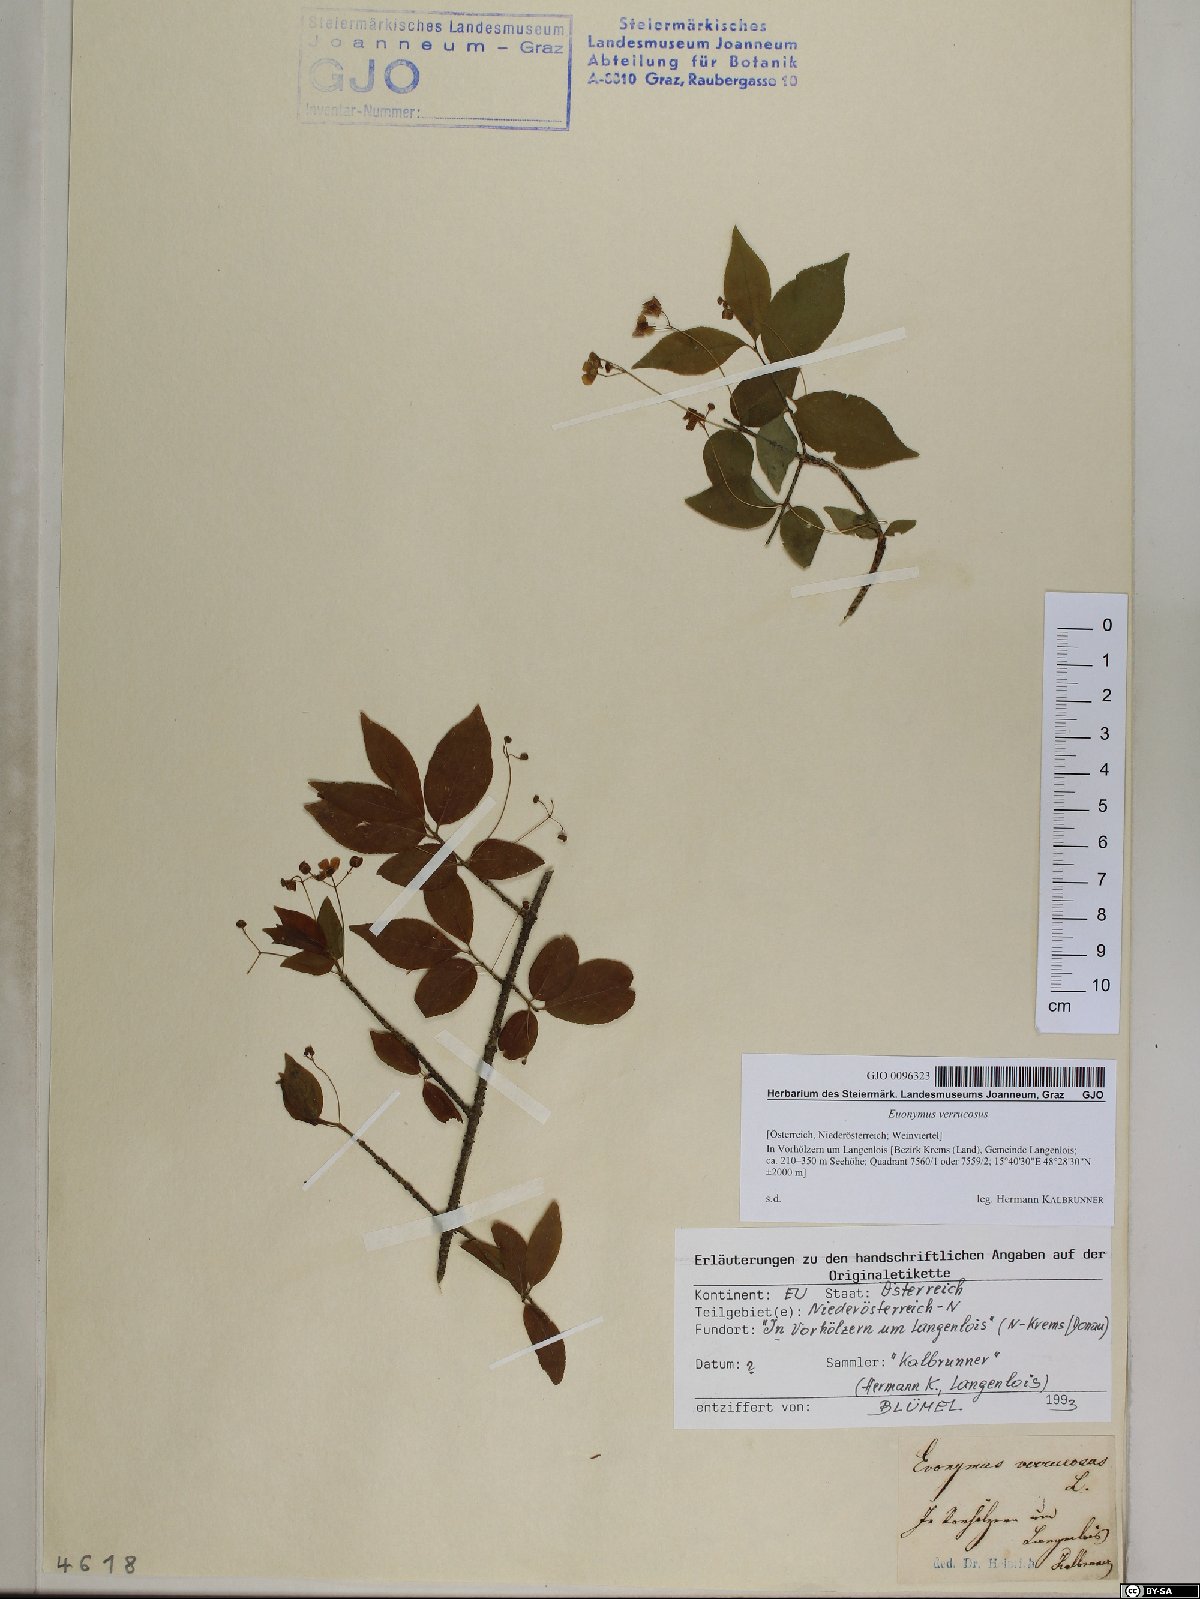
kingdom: Plantae
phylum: Tracheophyta
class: Magnoliopsida
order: Celastrales
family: Celastraceae
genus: Euonymus
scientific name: Euonymus verrucosus
